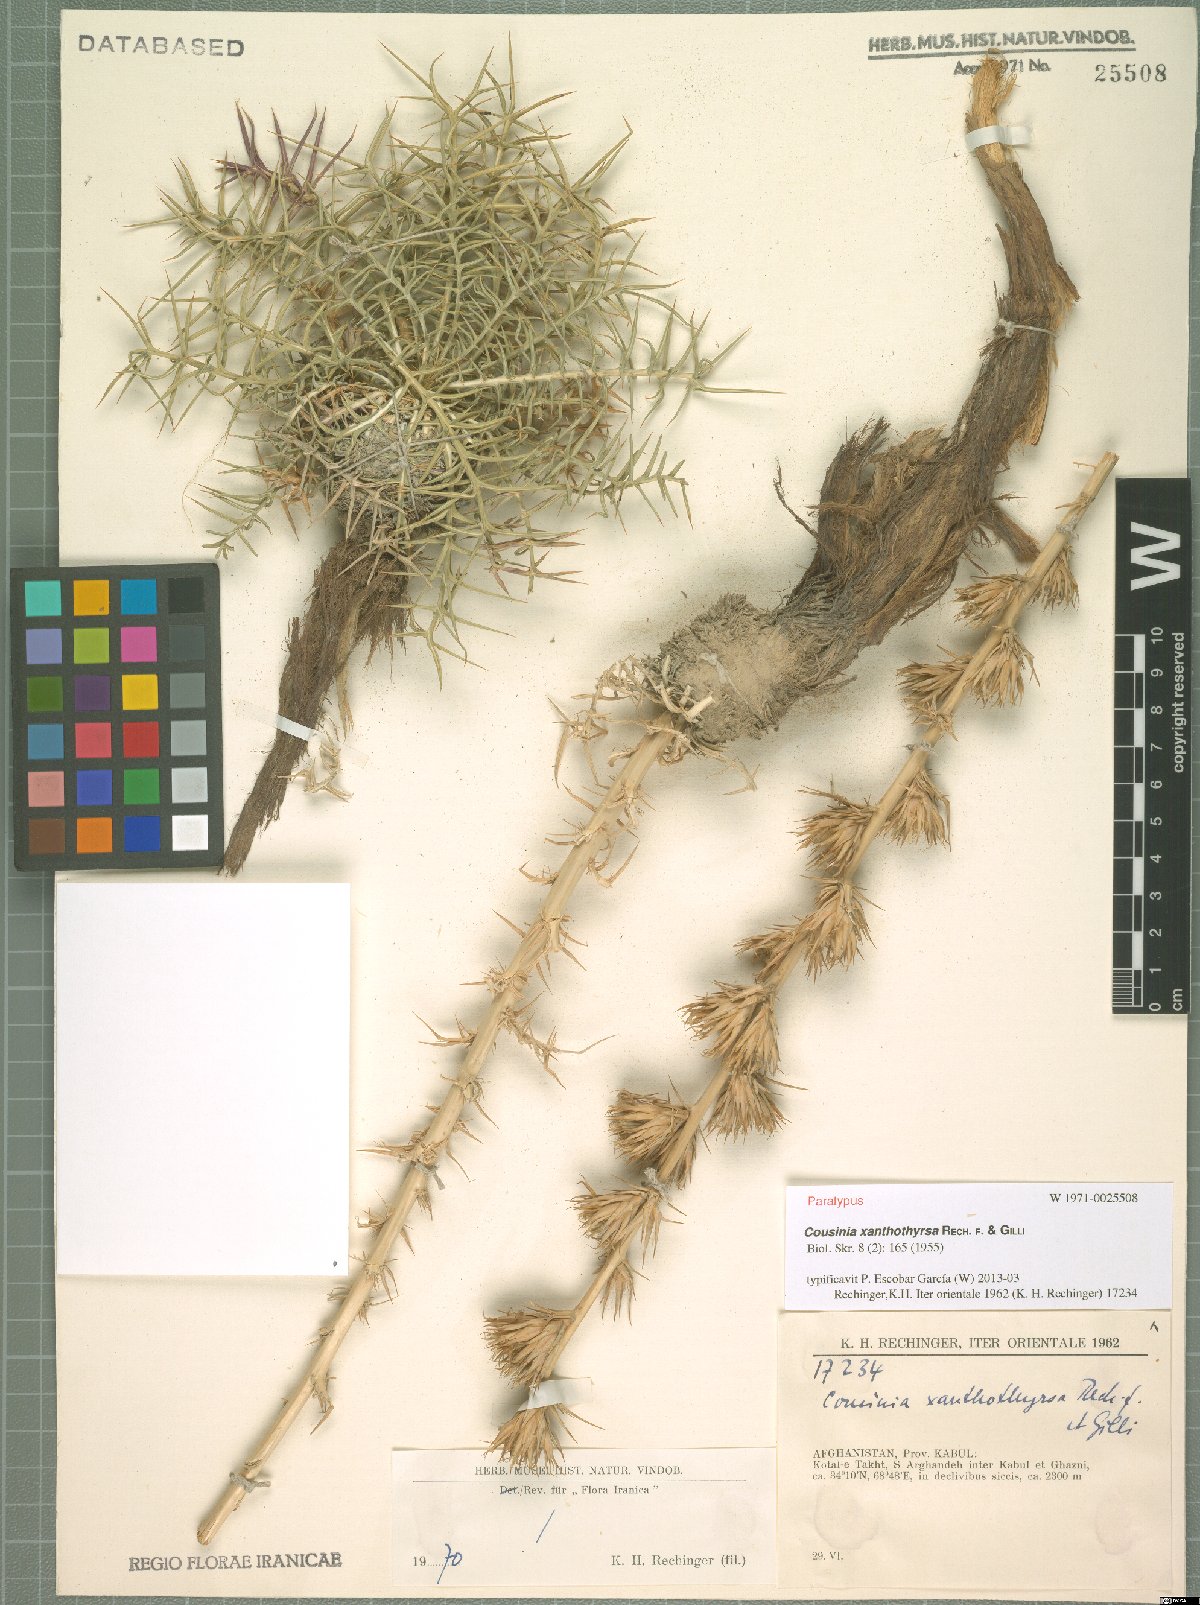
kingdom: Plantae
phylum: Tracheophyta
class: Magnoliopsida
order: Asterales
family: Asteraceae
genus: Cousinia
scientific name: Cousinia xanthothyrsa
